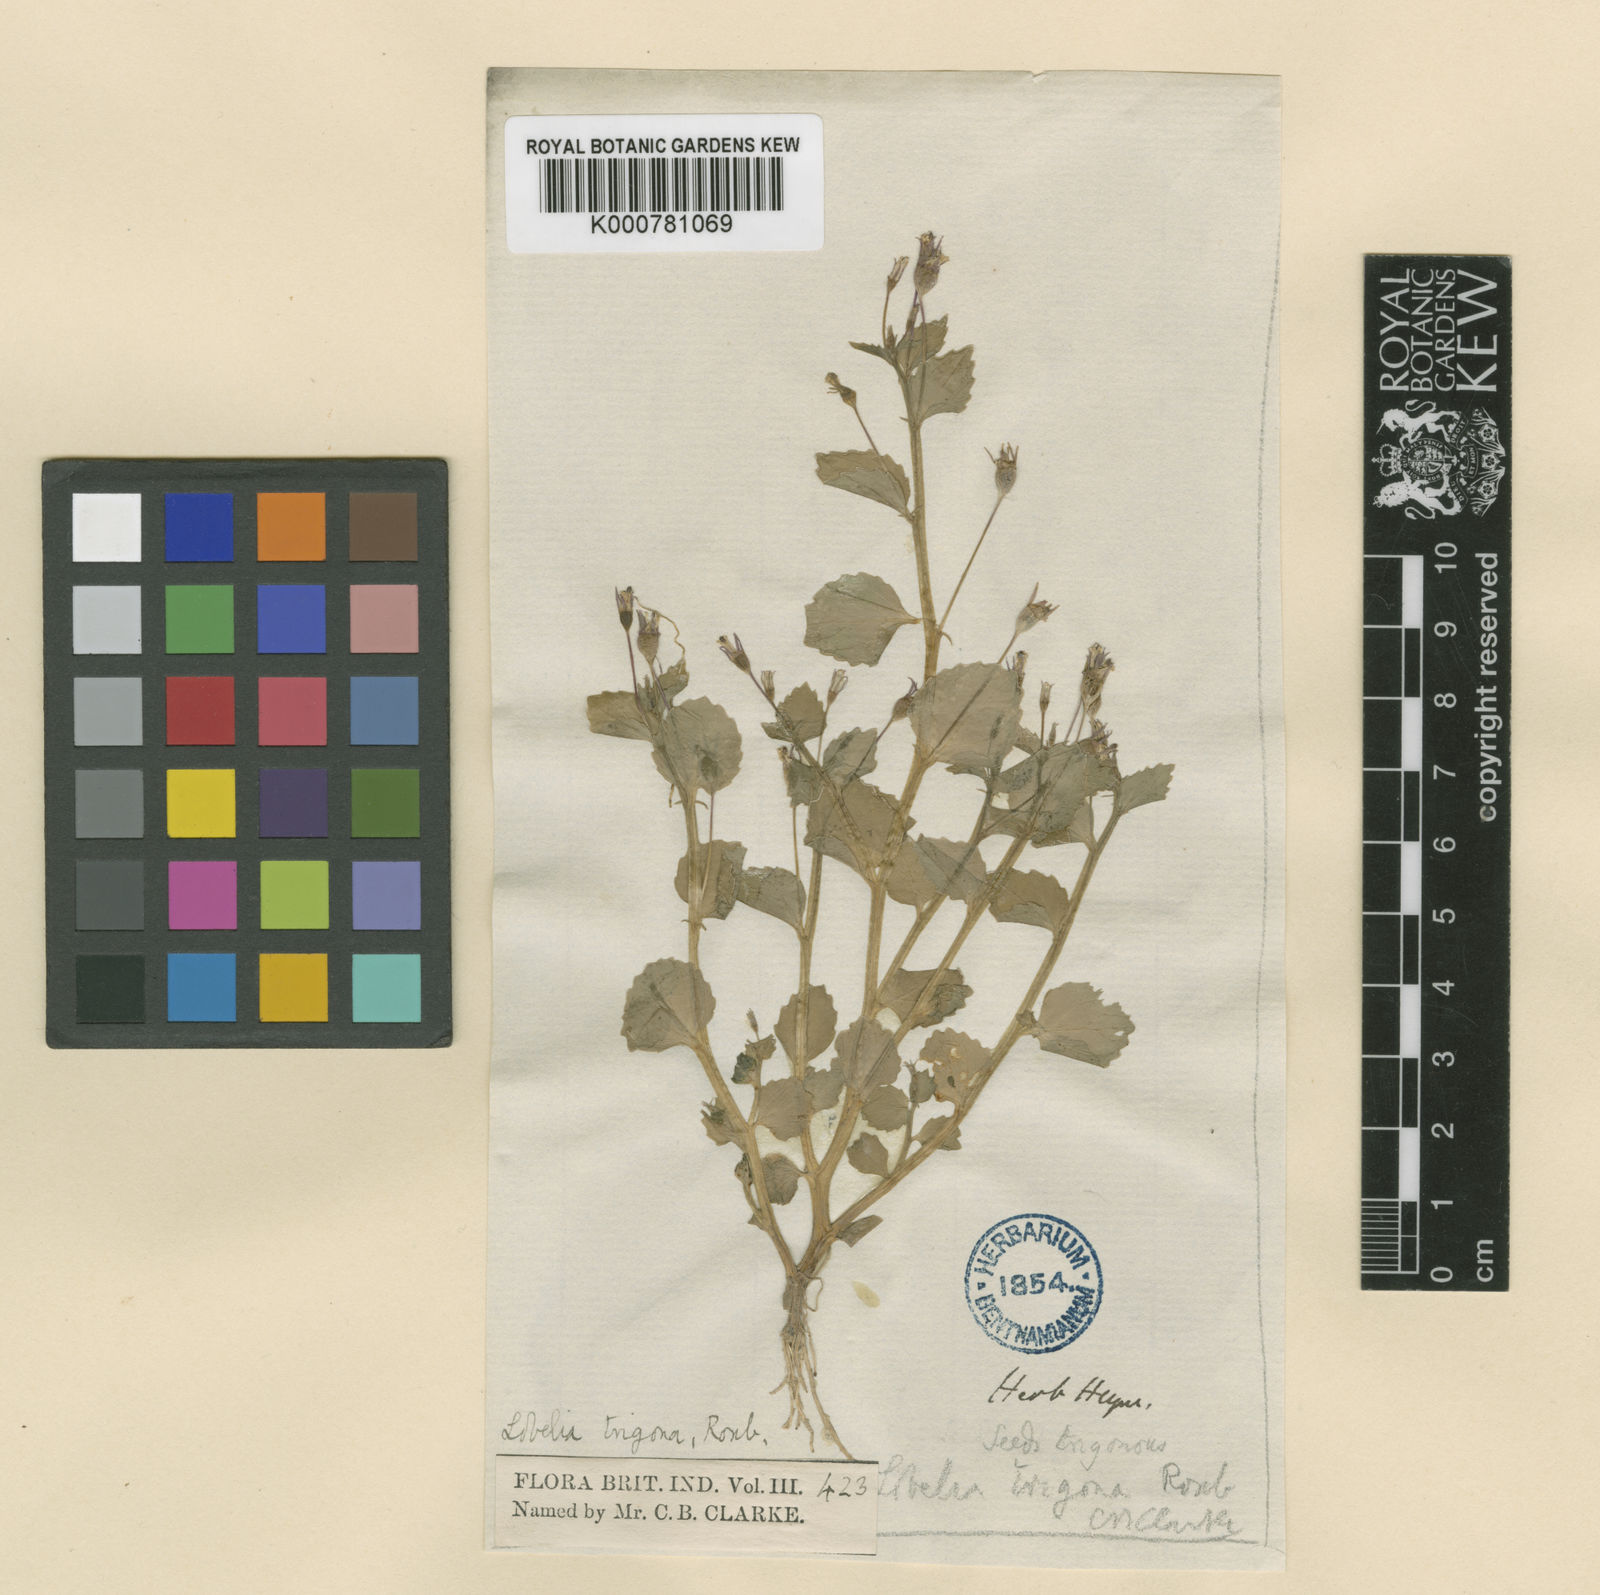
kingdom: Plantae
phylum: Tracheophyta
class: Magnoliopsida
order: Asterales
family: Campanulaceae
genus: Lobelia
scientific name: Lobelia alsinoides
